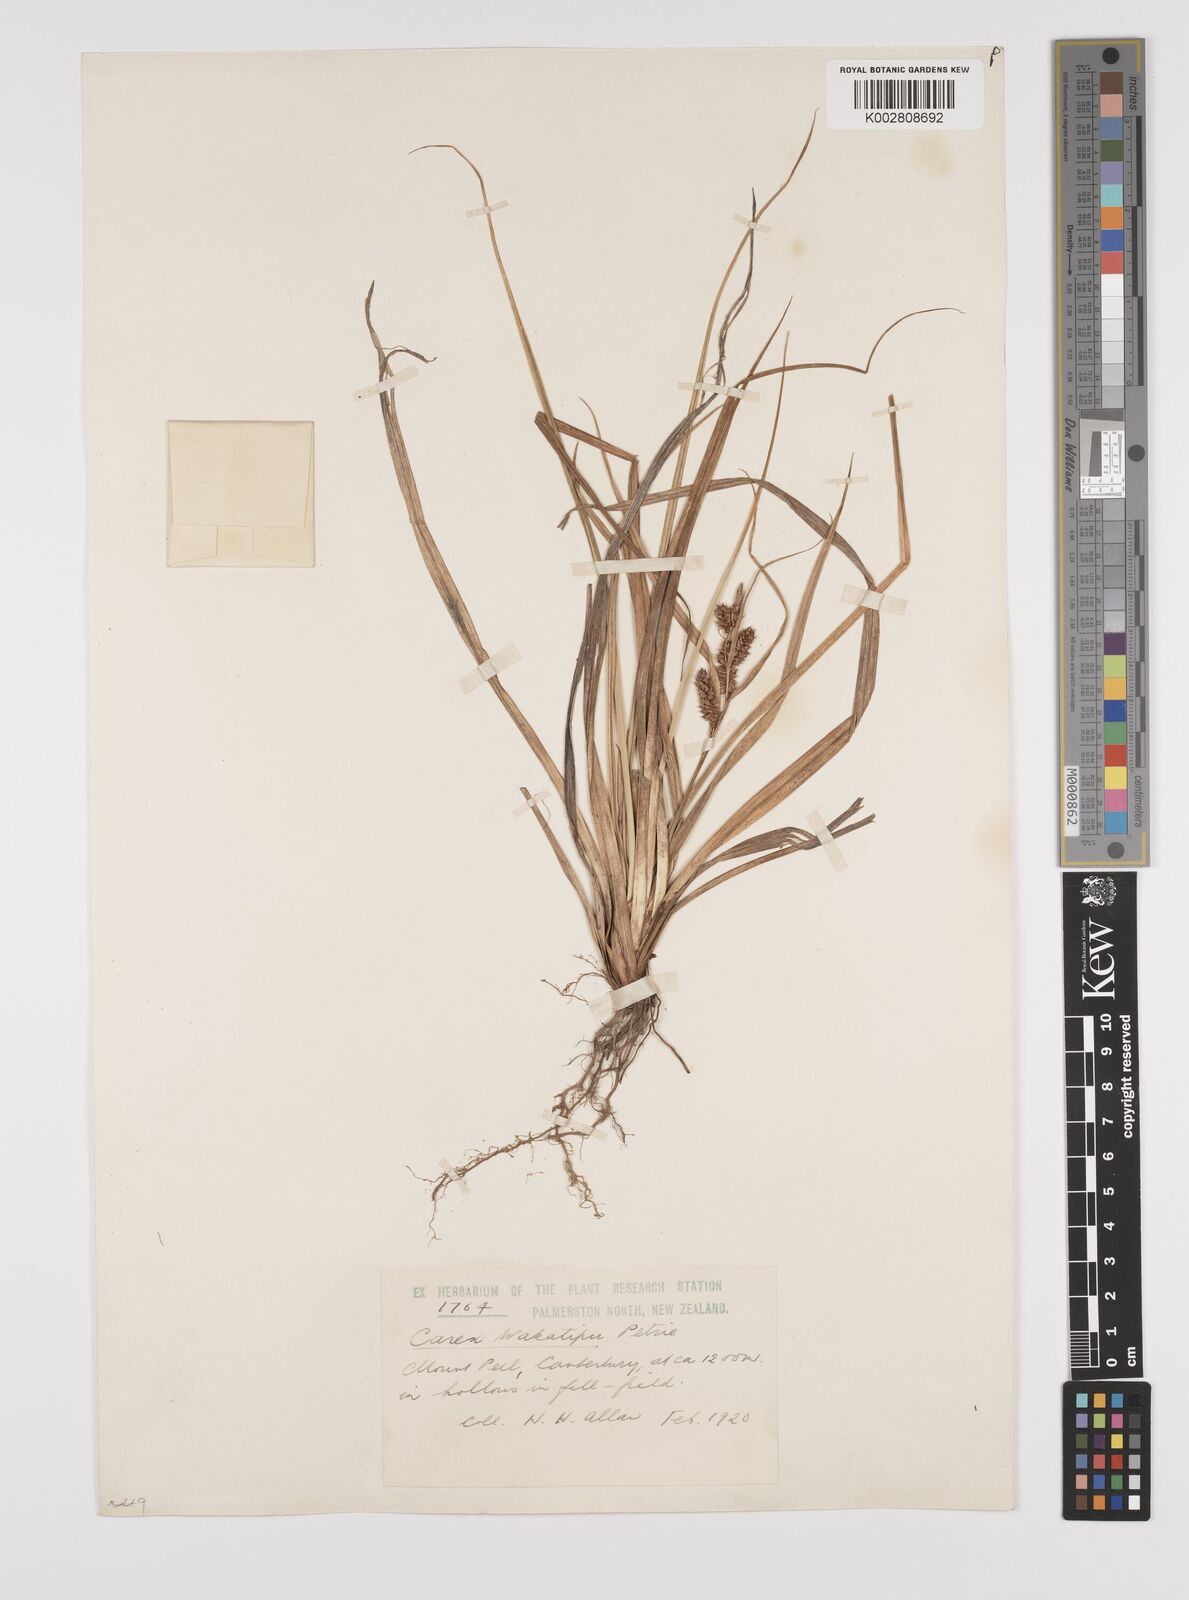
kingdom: Plantae
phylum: Tracheophyta
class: Liliopsida
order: Poales
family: Cyperaceae
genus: Carex
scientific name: Carex wakatipu
